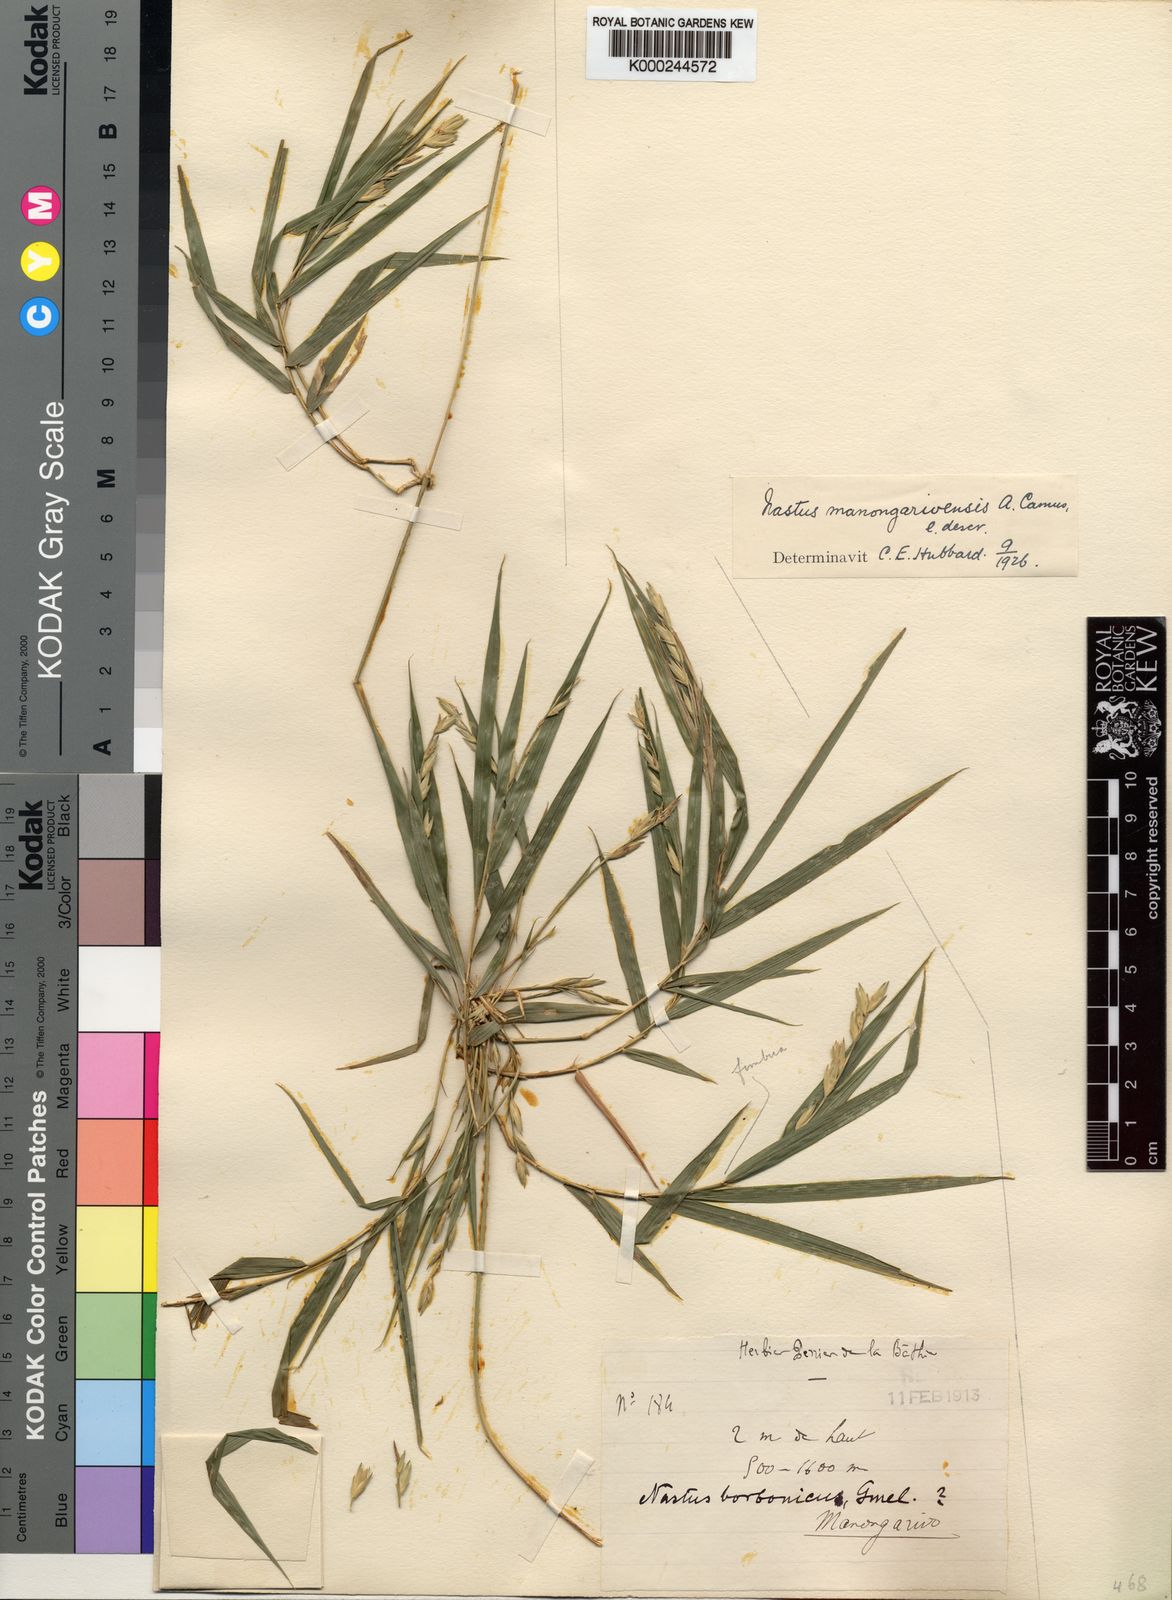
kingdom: Plantae
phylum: Tracheophyta
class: Liliopsida
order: Poales
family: Poaceae
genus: Nastus
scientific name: Nastus madagascariensis
